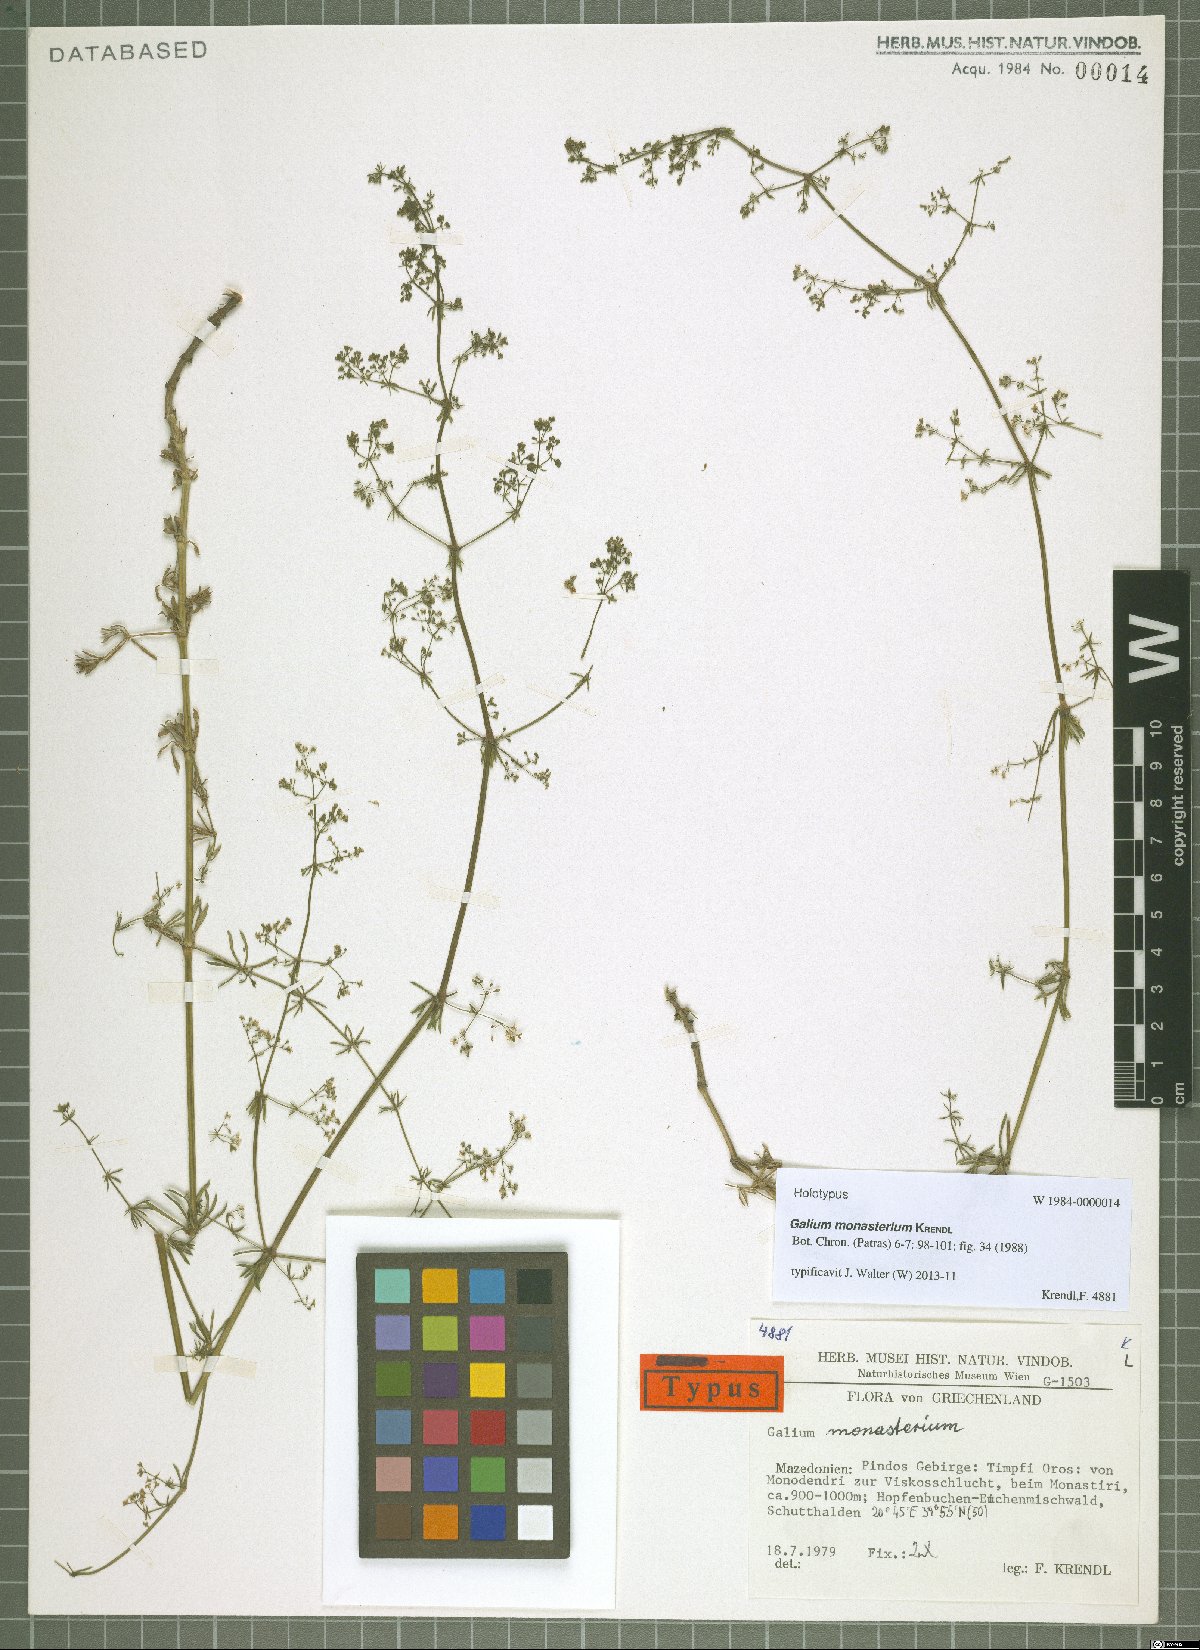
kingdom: Plantae
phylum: Tracheophyta
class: Magnoliopsida
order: Gentianales
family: Rubiaceae
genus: Galium
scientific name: Galium monasterium
